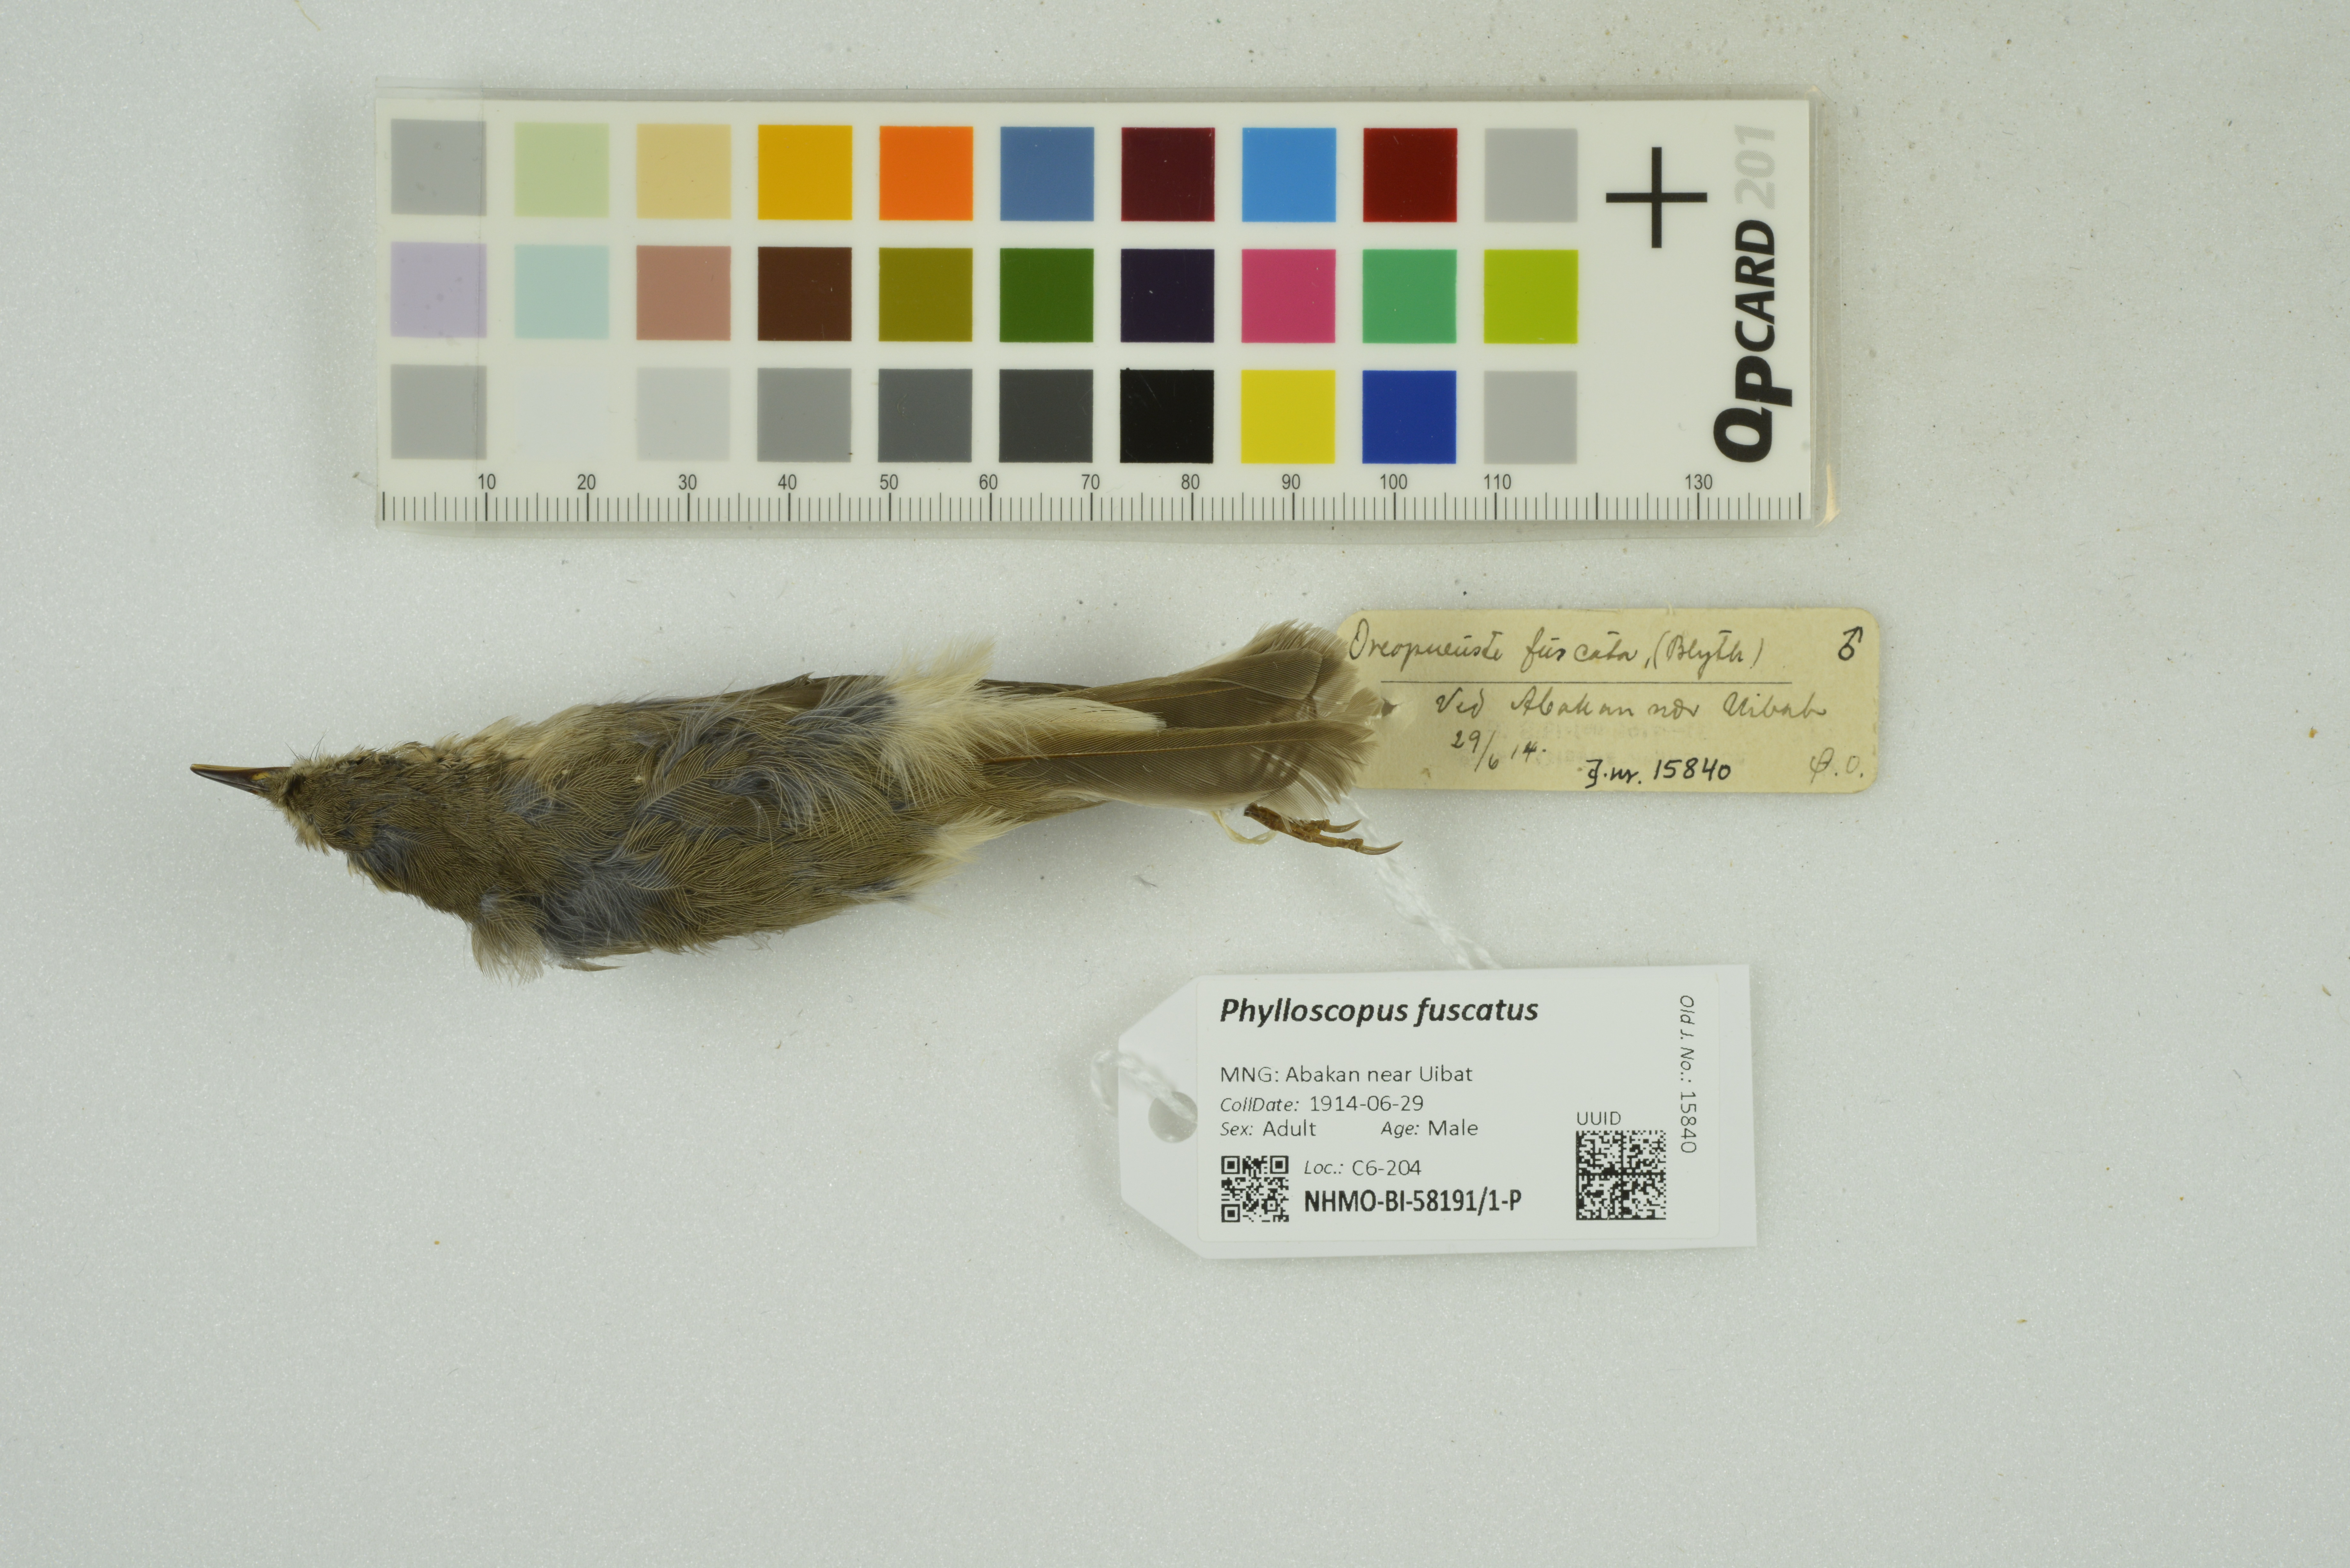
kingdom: Animalia
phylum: Chordata
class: Aves
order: Passeriformes
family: Phylloscopidae
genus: Phylloscopus
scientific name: Phylloscopus fuscatus
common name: Dusky warbler
